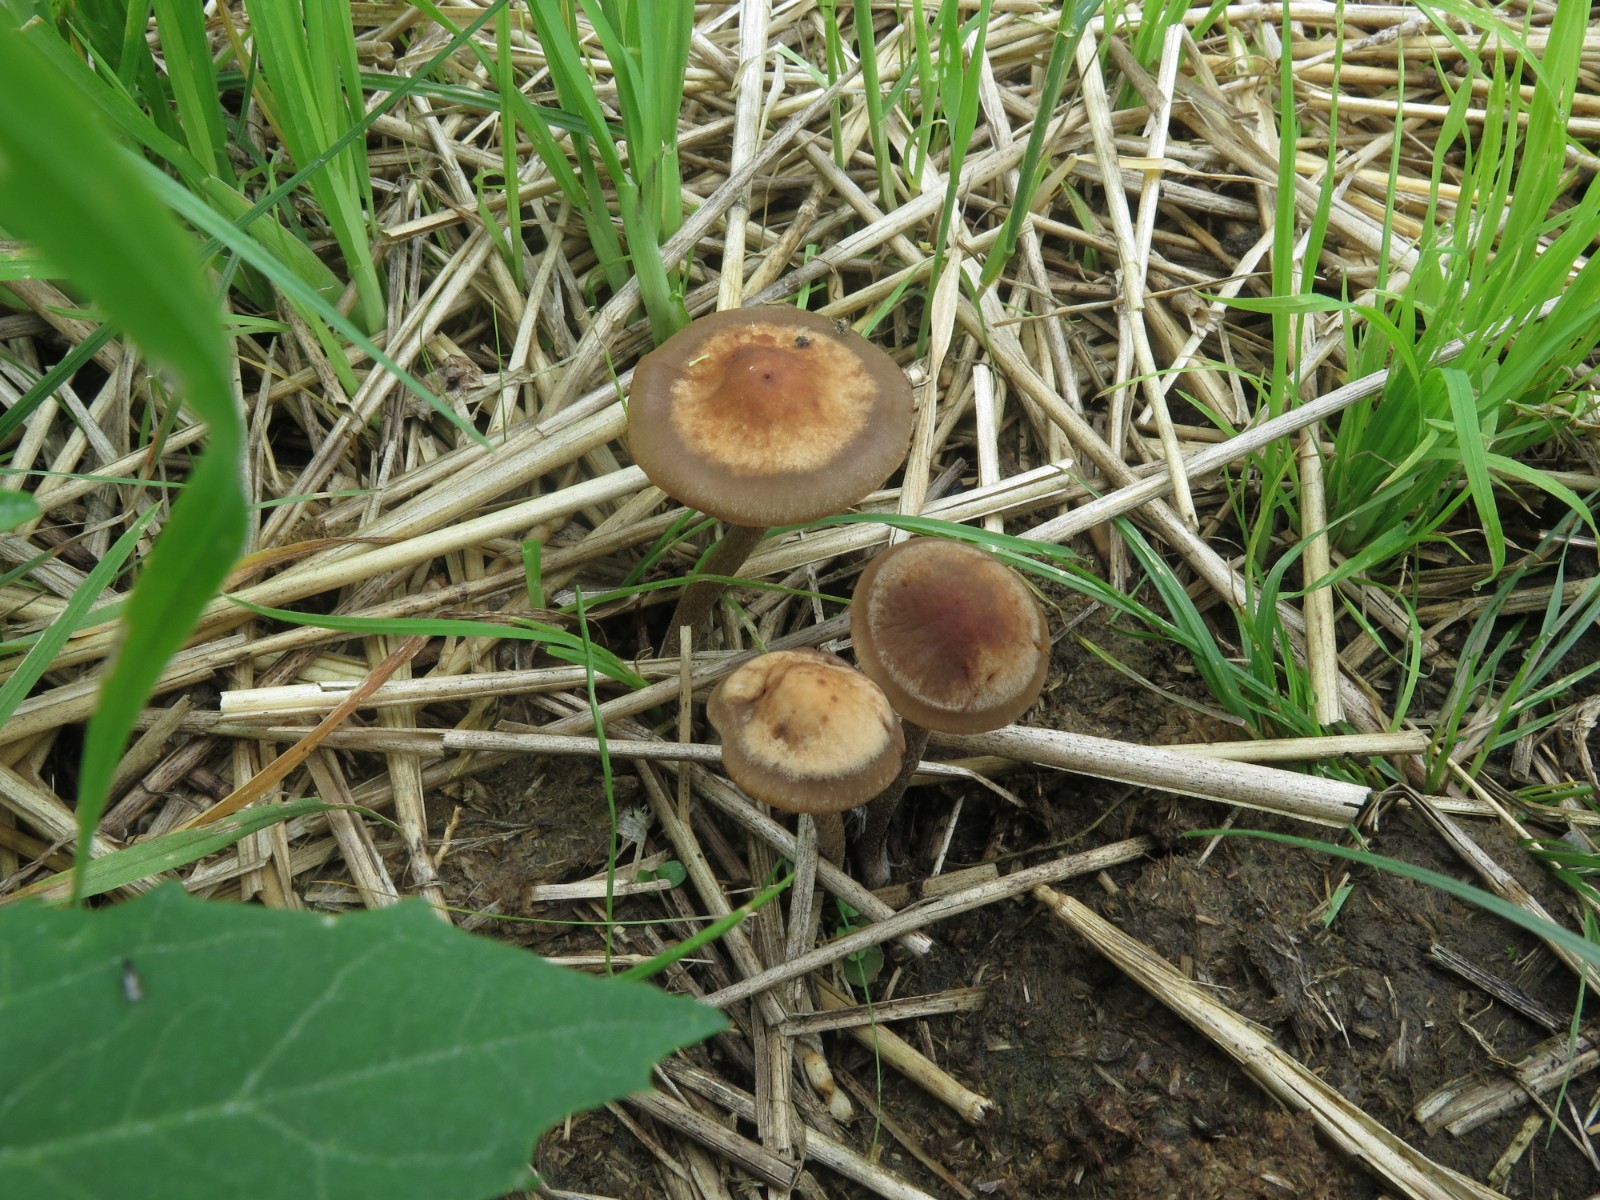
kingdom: Fungi
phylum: Basidiomycota
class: Agaricomycetes
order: Agaricales
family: Bolbitiaceae
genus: Panaeolus
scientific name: Panaeolus cinctulus
